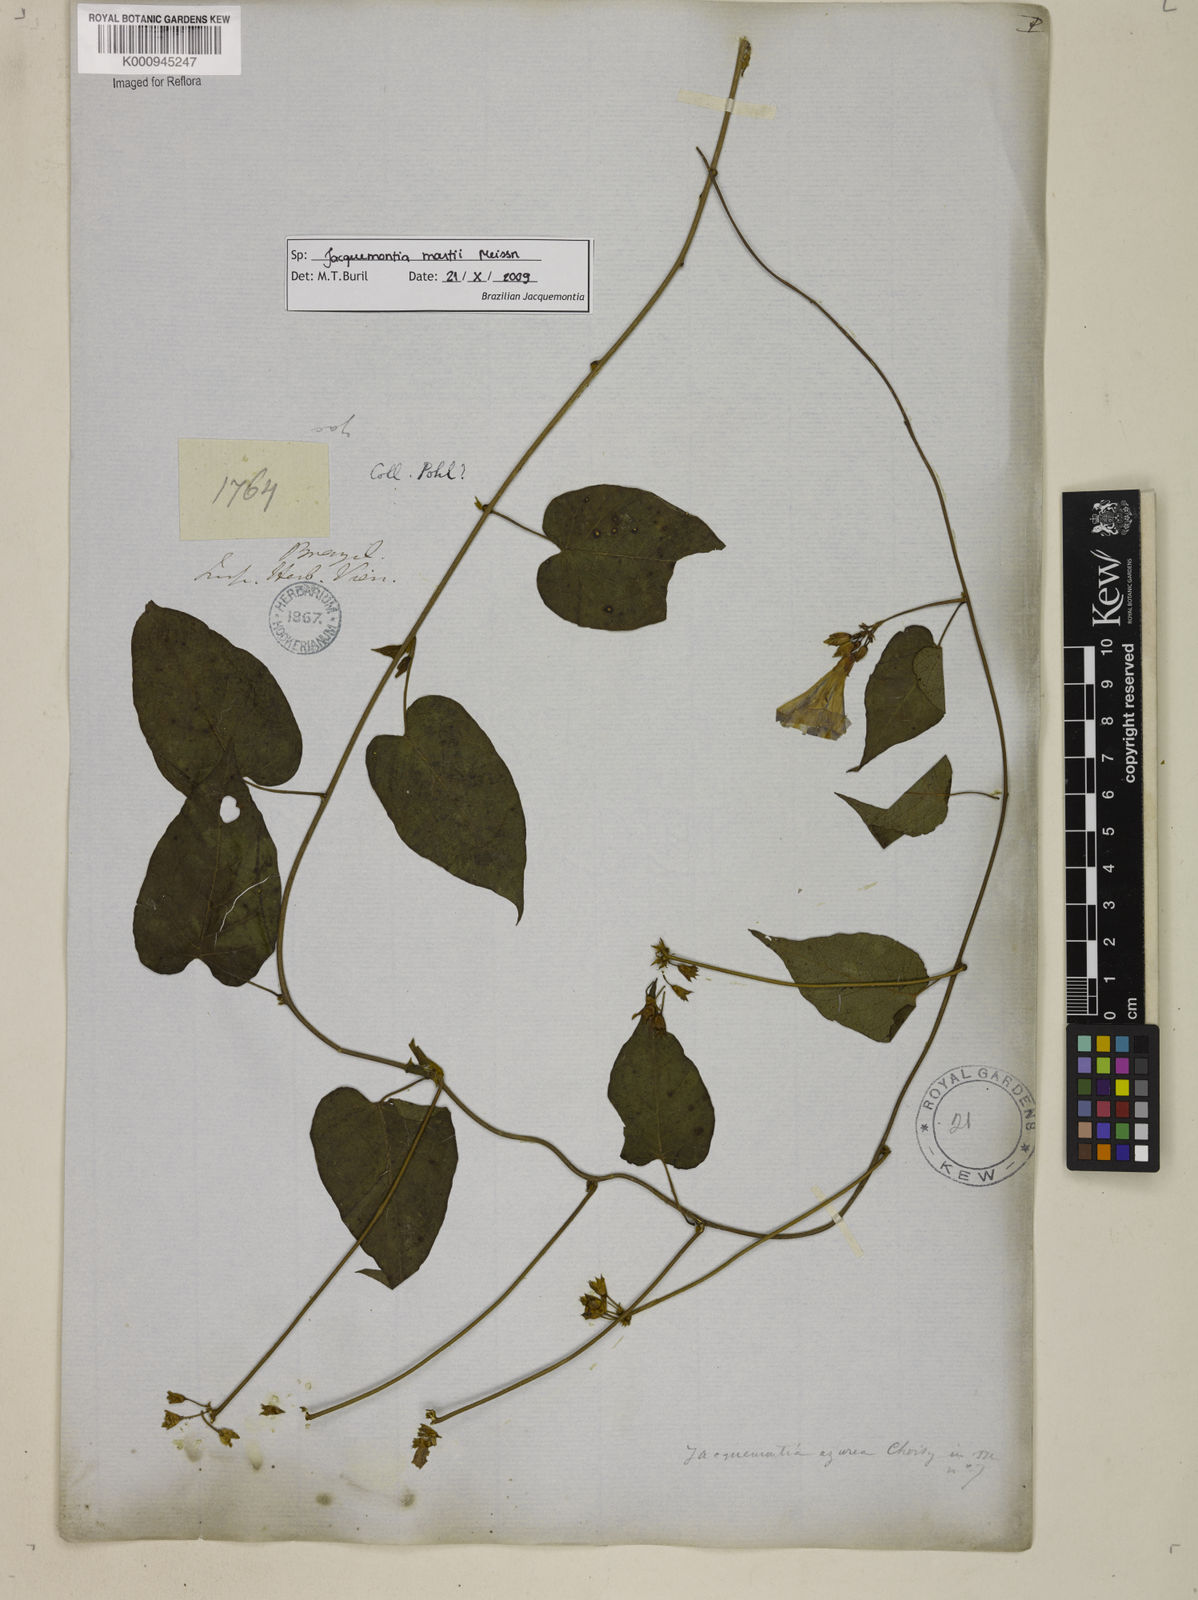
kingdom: Plantae
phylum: Tracheophyta
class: Magnoliopsida
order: Solanales
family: Convolvulaceae
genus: Jacquemontia
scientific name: Jacquemontia martii
